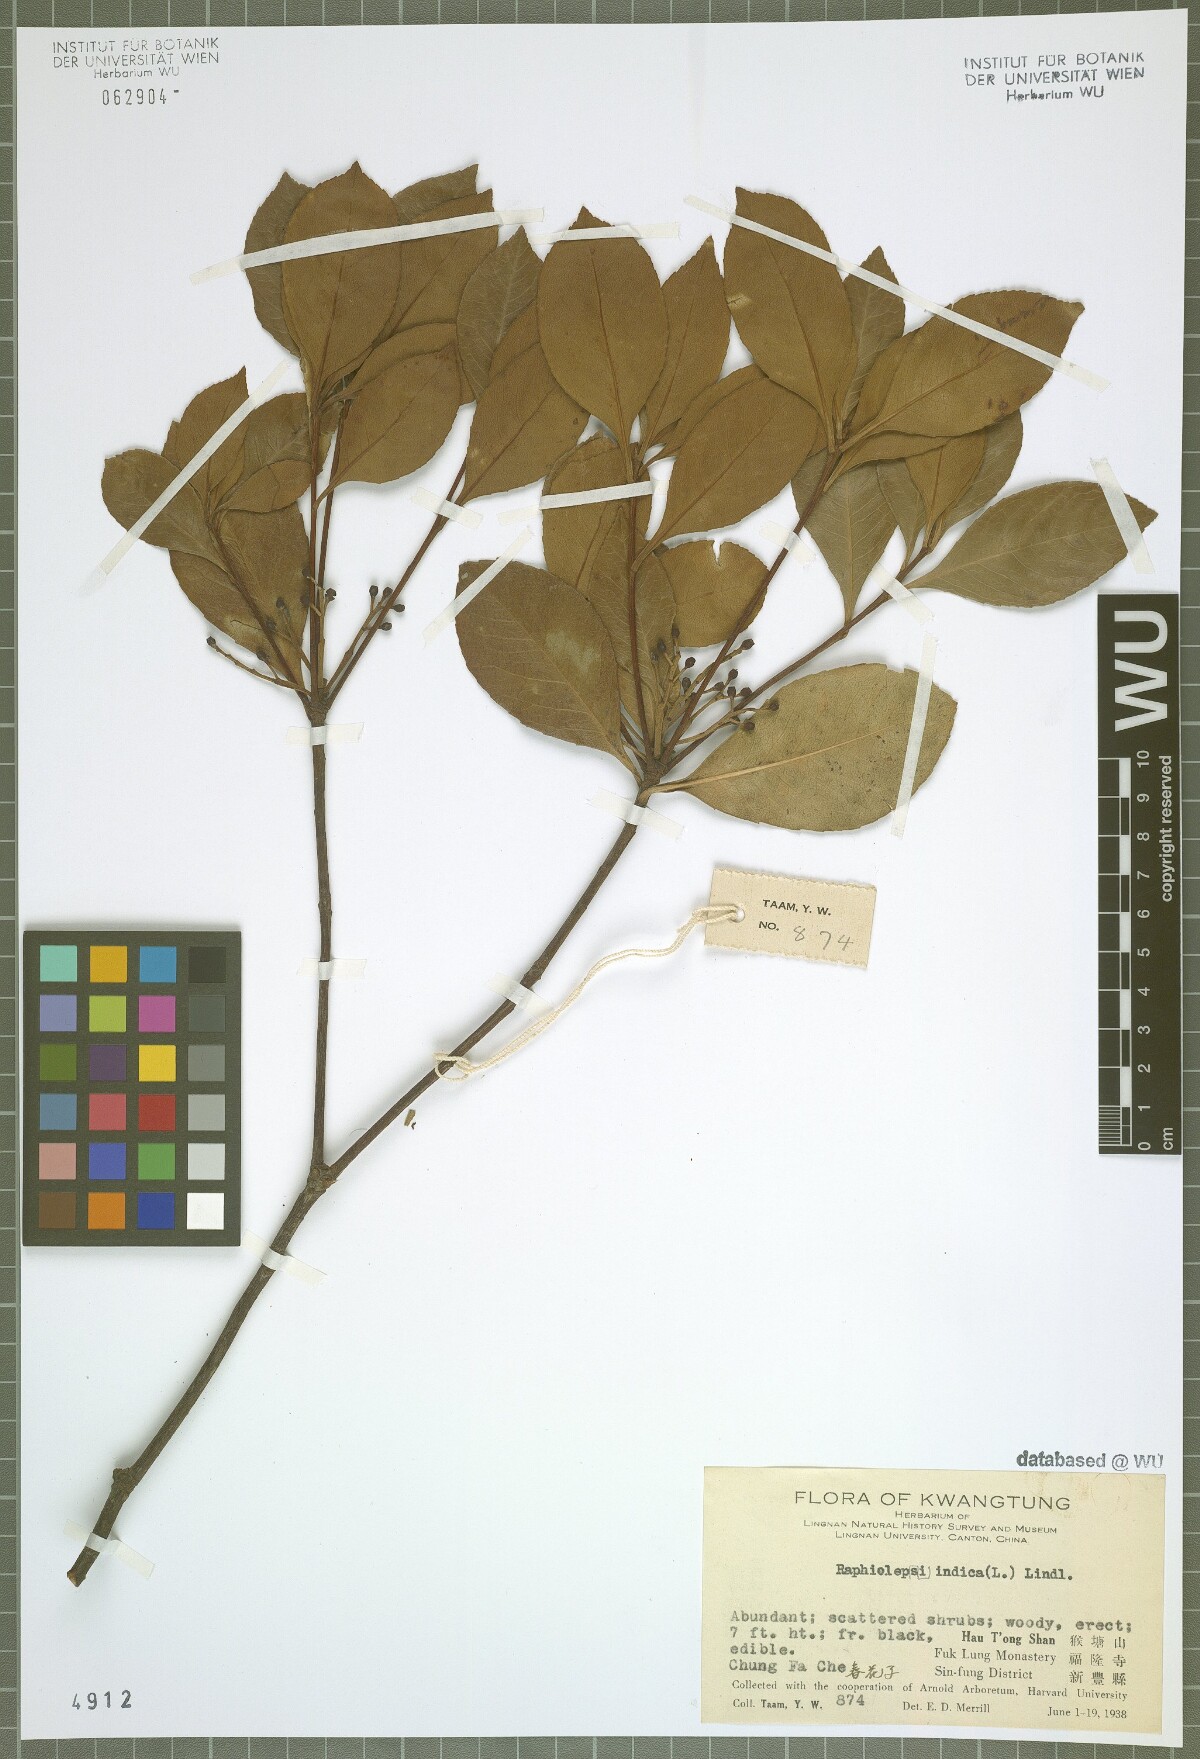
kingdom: Plantae
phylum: Tracheophyta
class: Magnoliopsida
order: Rosales
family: Rosaceae
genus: Rhaphiolepis
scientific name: Rhaphiolepis indica
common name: India-hawthorn
